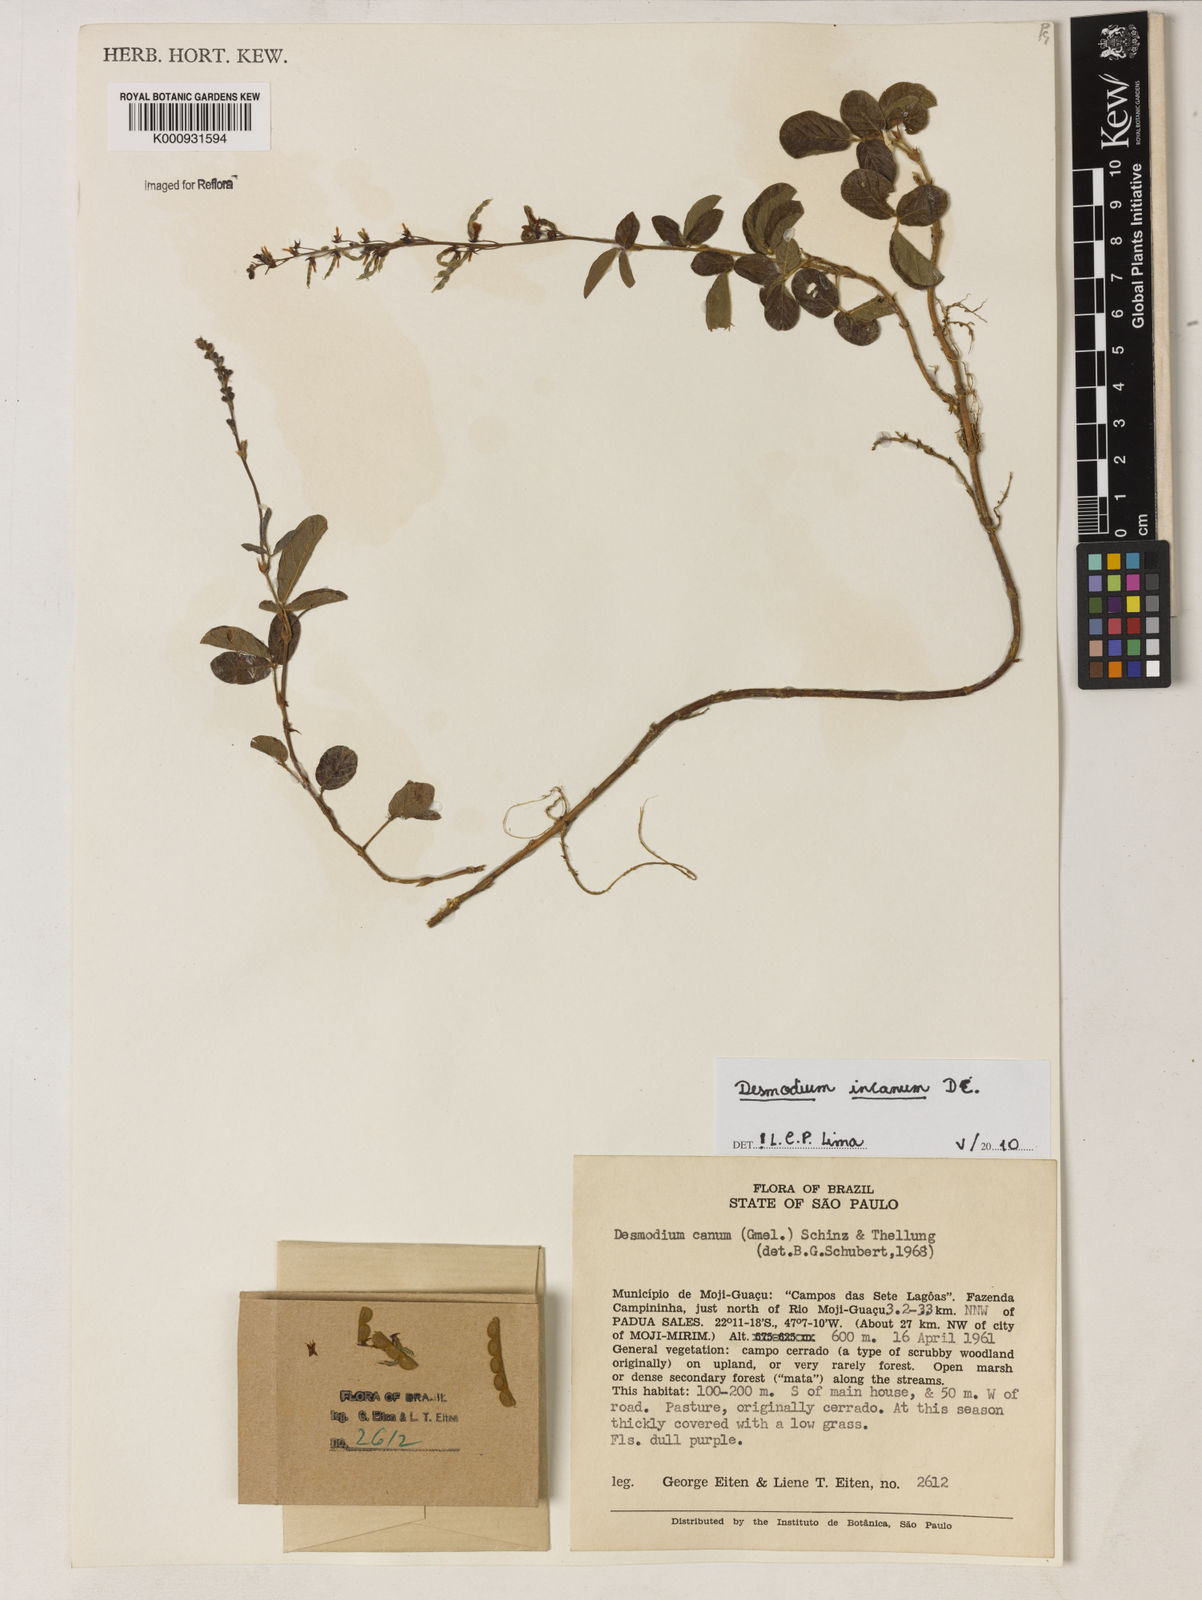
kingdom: Plantae
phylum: Tracheophyta
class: Magnoliopsida
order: Fabales
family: Fabaceae
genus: Desmodium
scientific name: Desmodium incanum
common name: Tickclover
